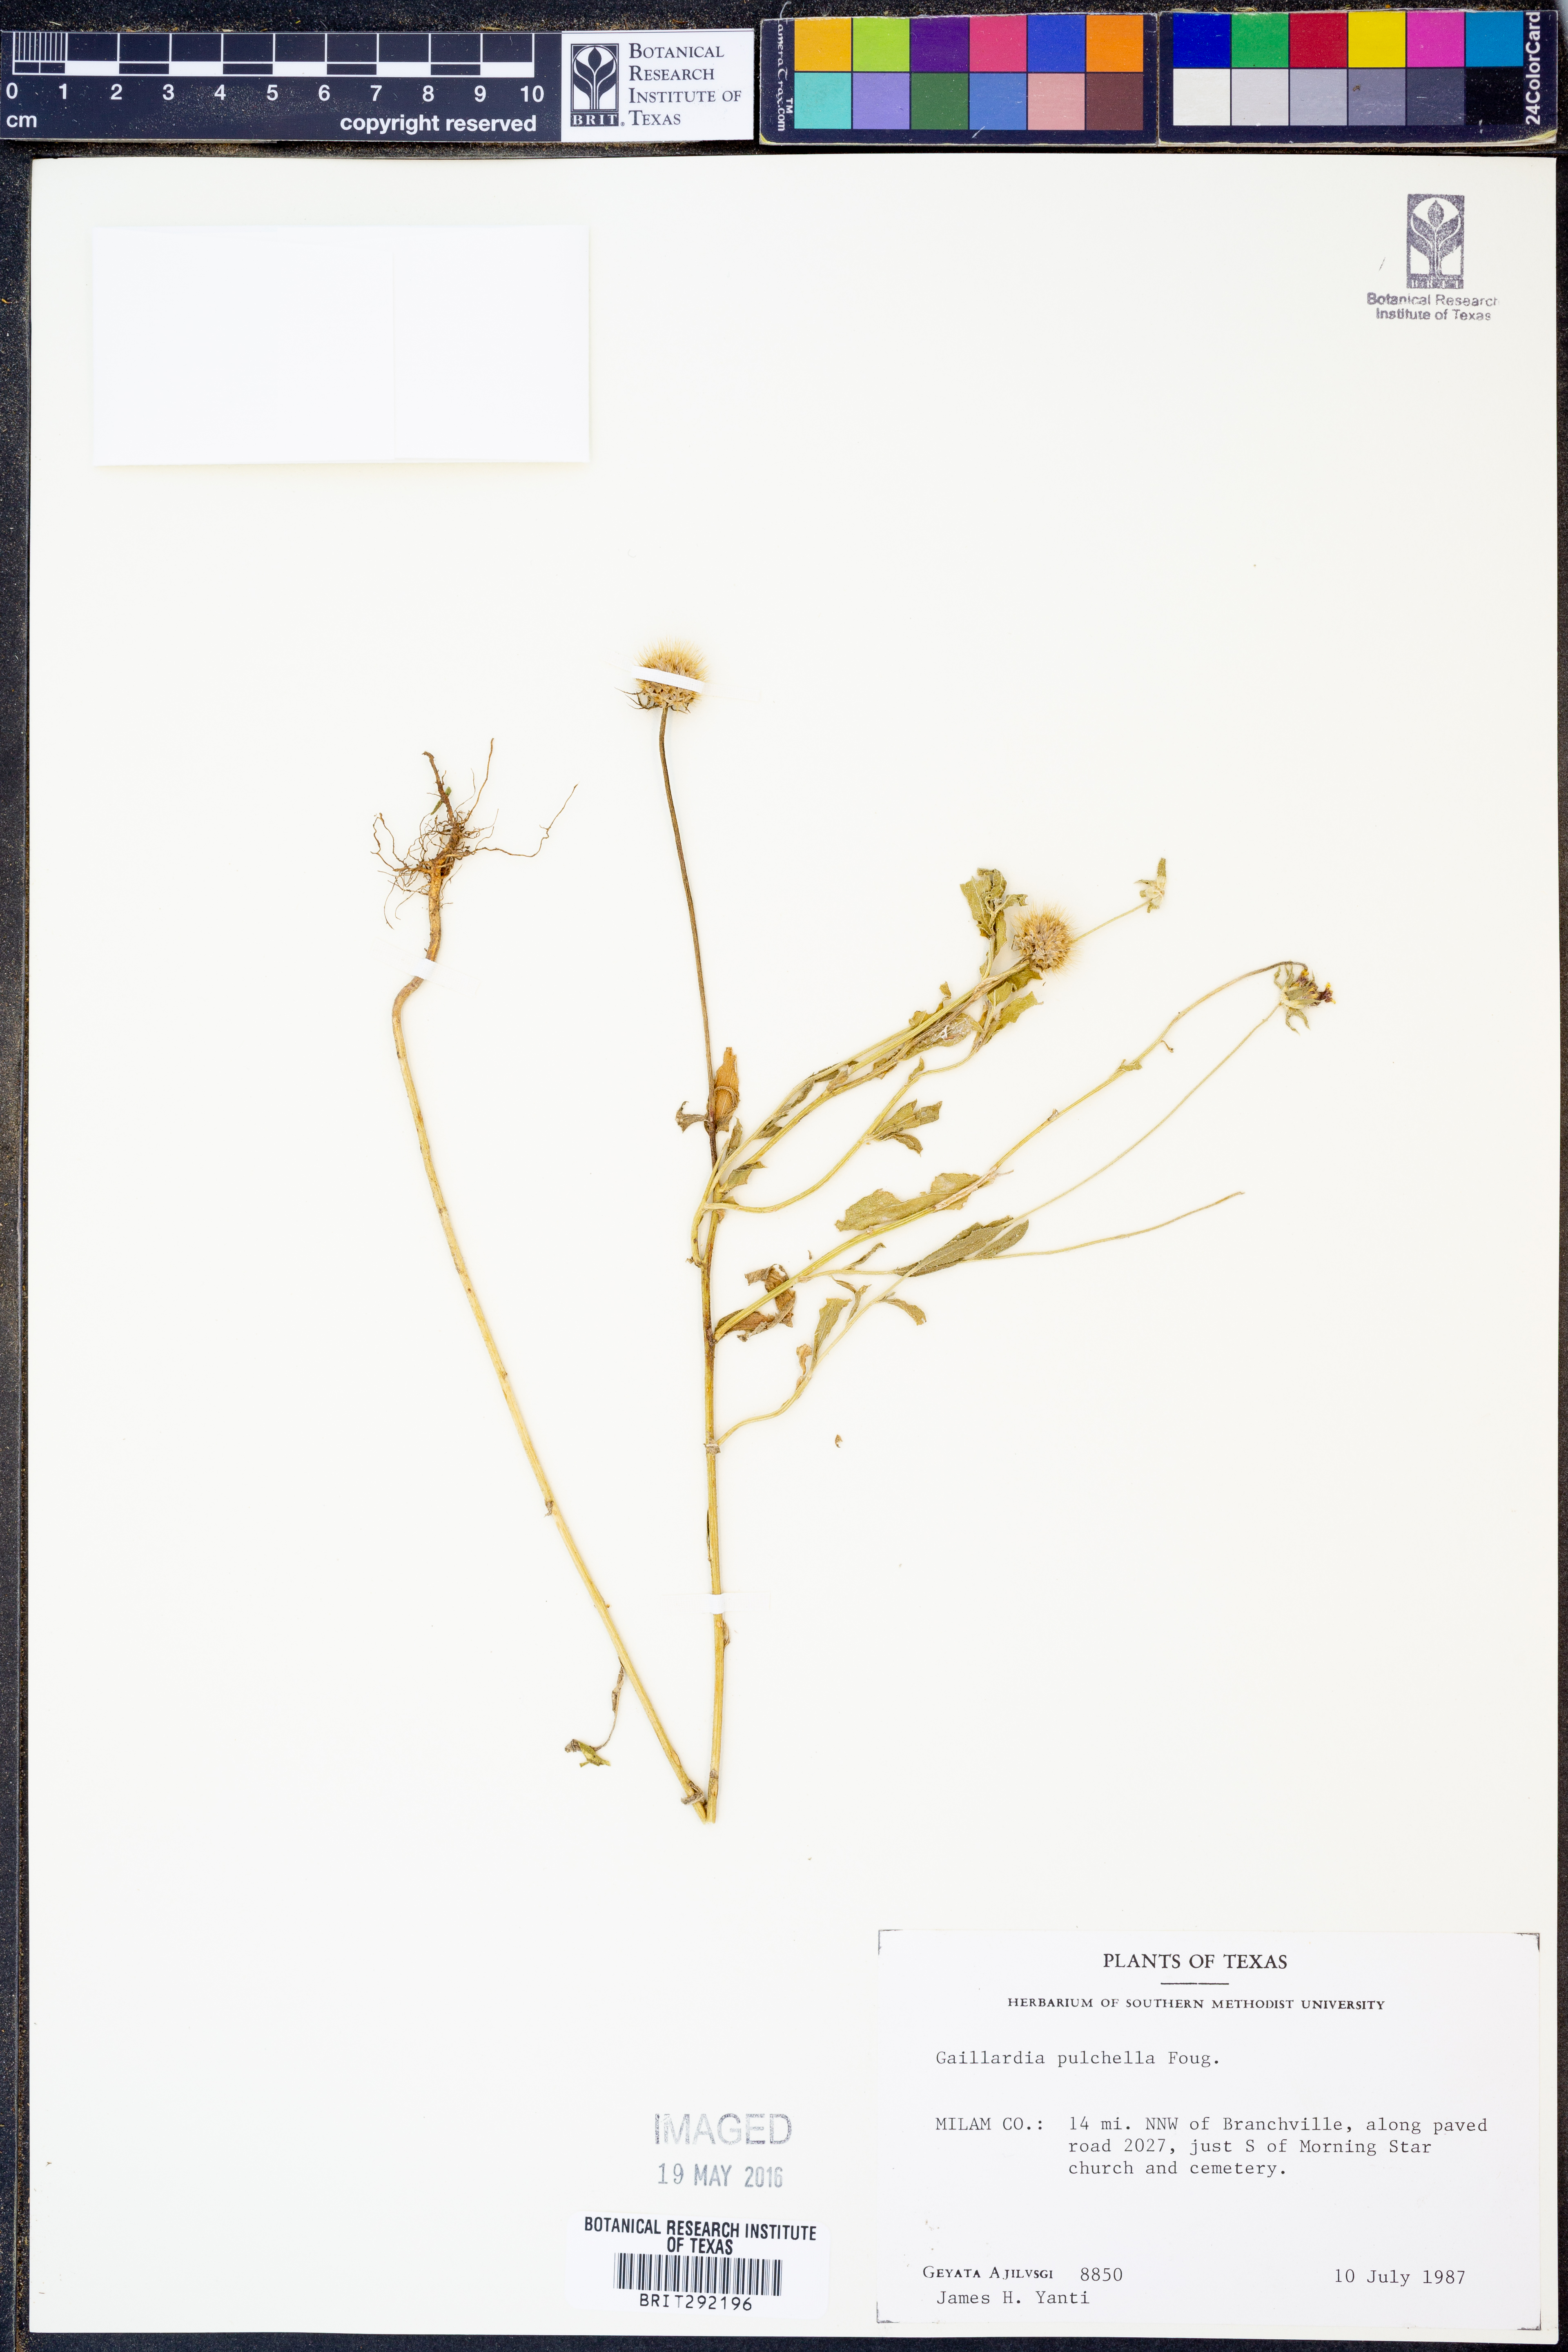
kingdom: Plantae
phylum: Tracheophyta
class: Magnoliopsida
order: Asterales
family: Asteraceae
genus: Gaillardia
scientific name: Gaillardia pulchella
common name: Firewheel
